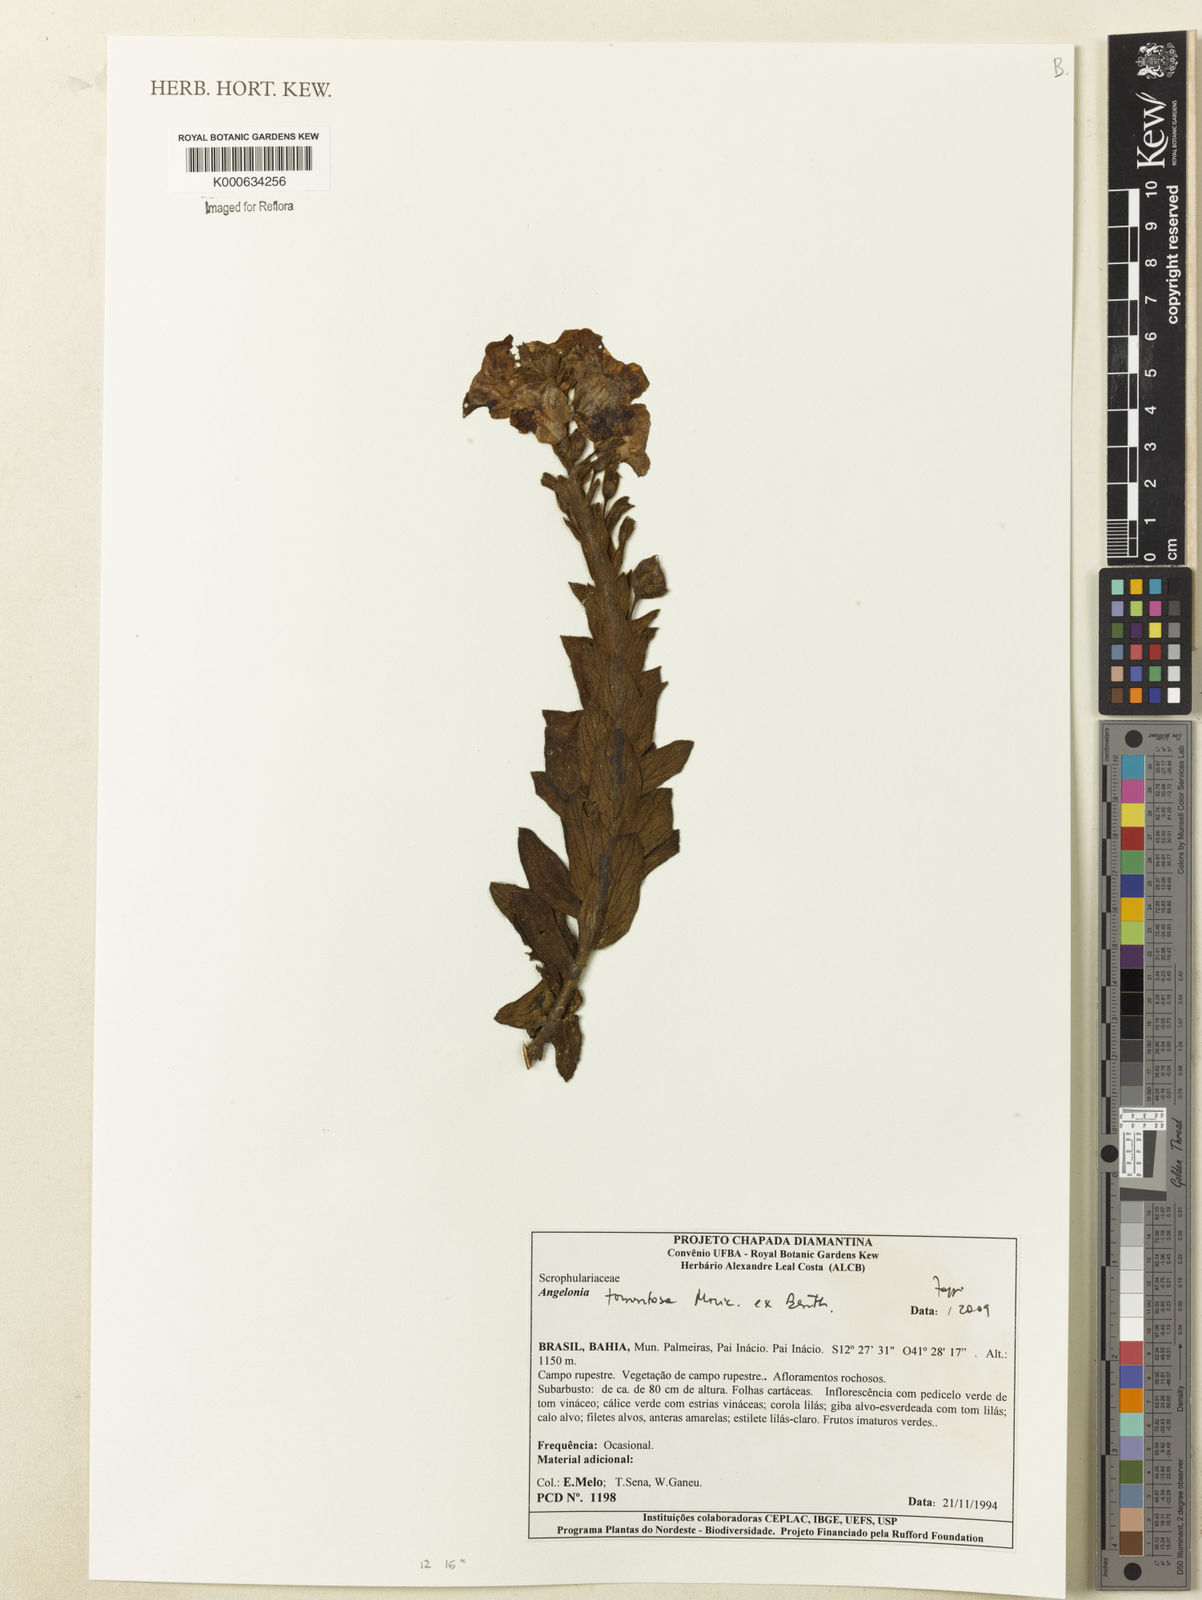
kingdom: Plantae
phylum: Tracheophyta
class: Magnoliopsida
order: Lamiales
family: Plantaginaceae
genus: Angelonia
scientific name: Angelonia tomentosa
